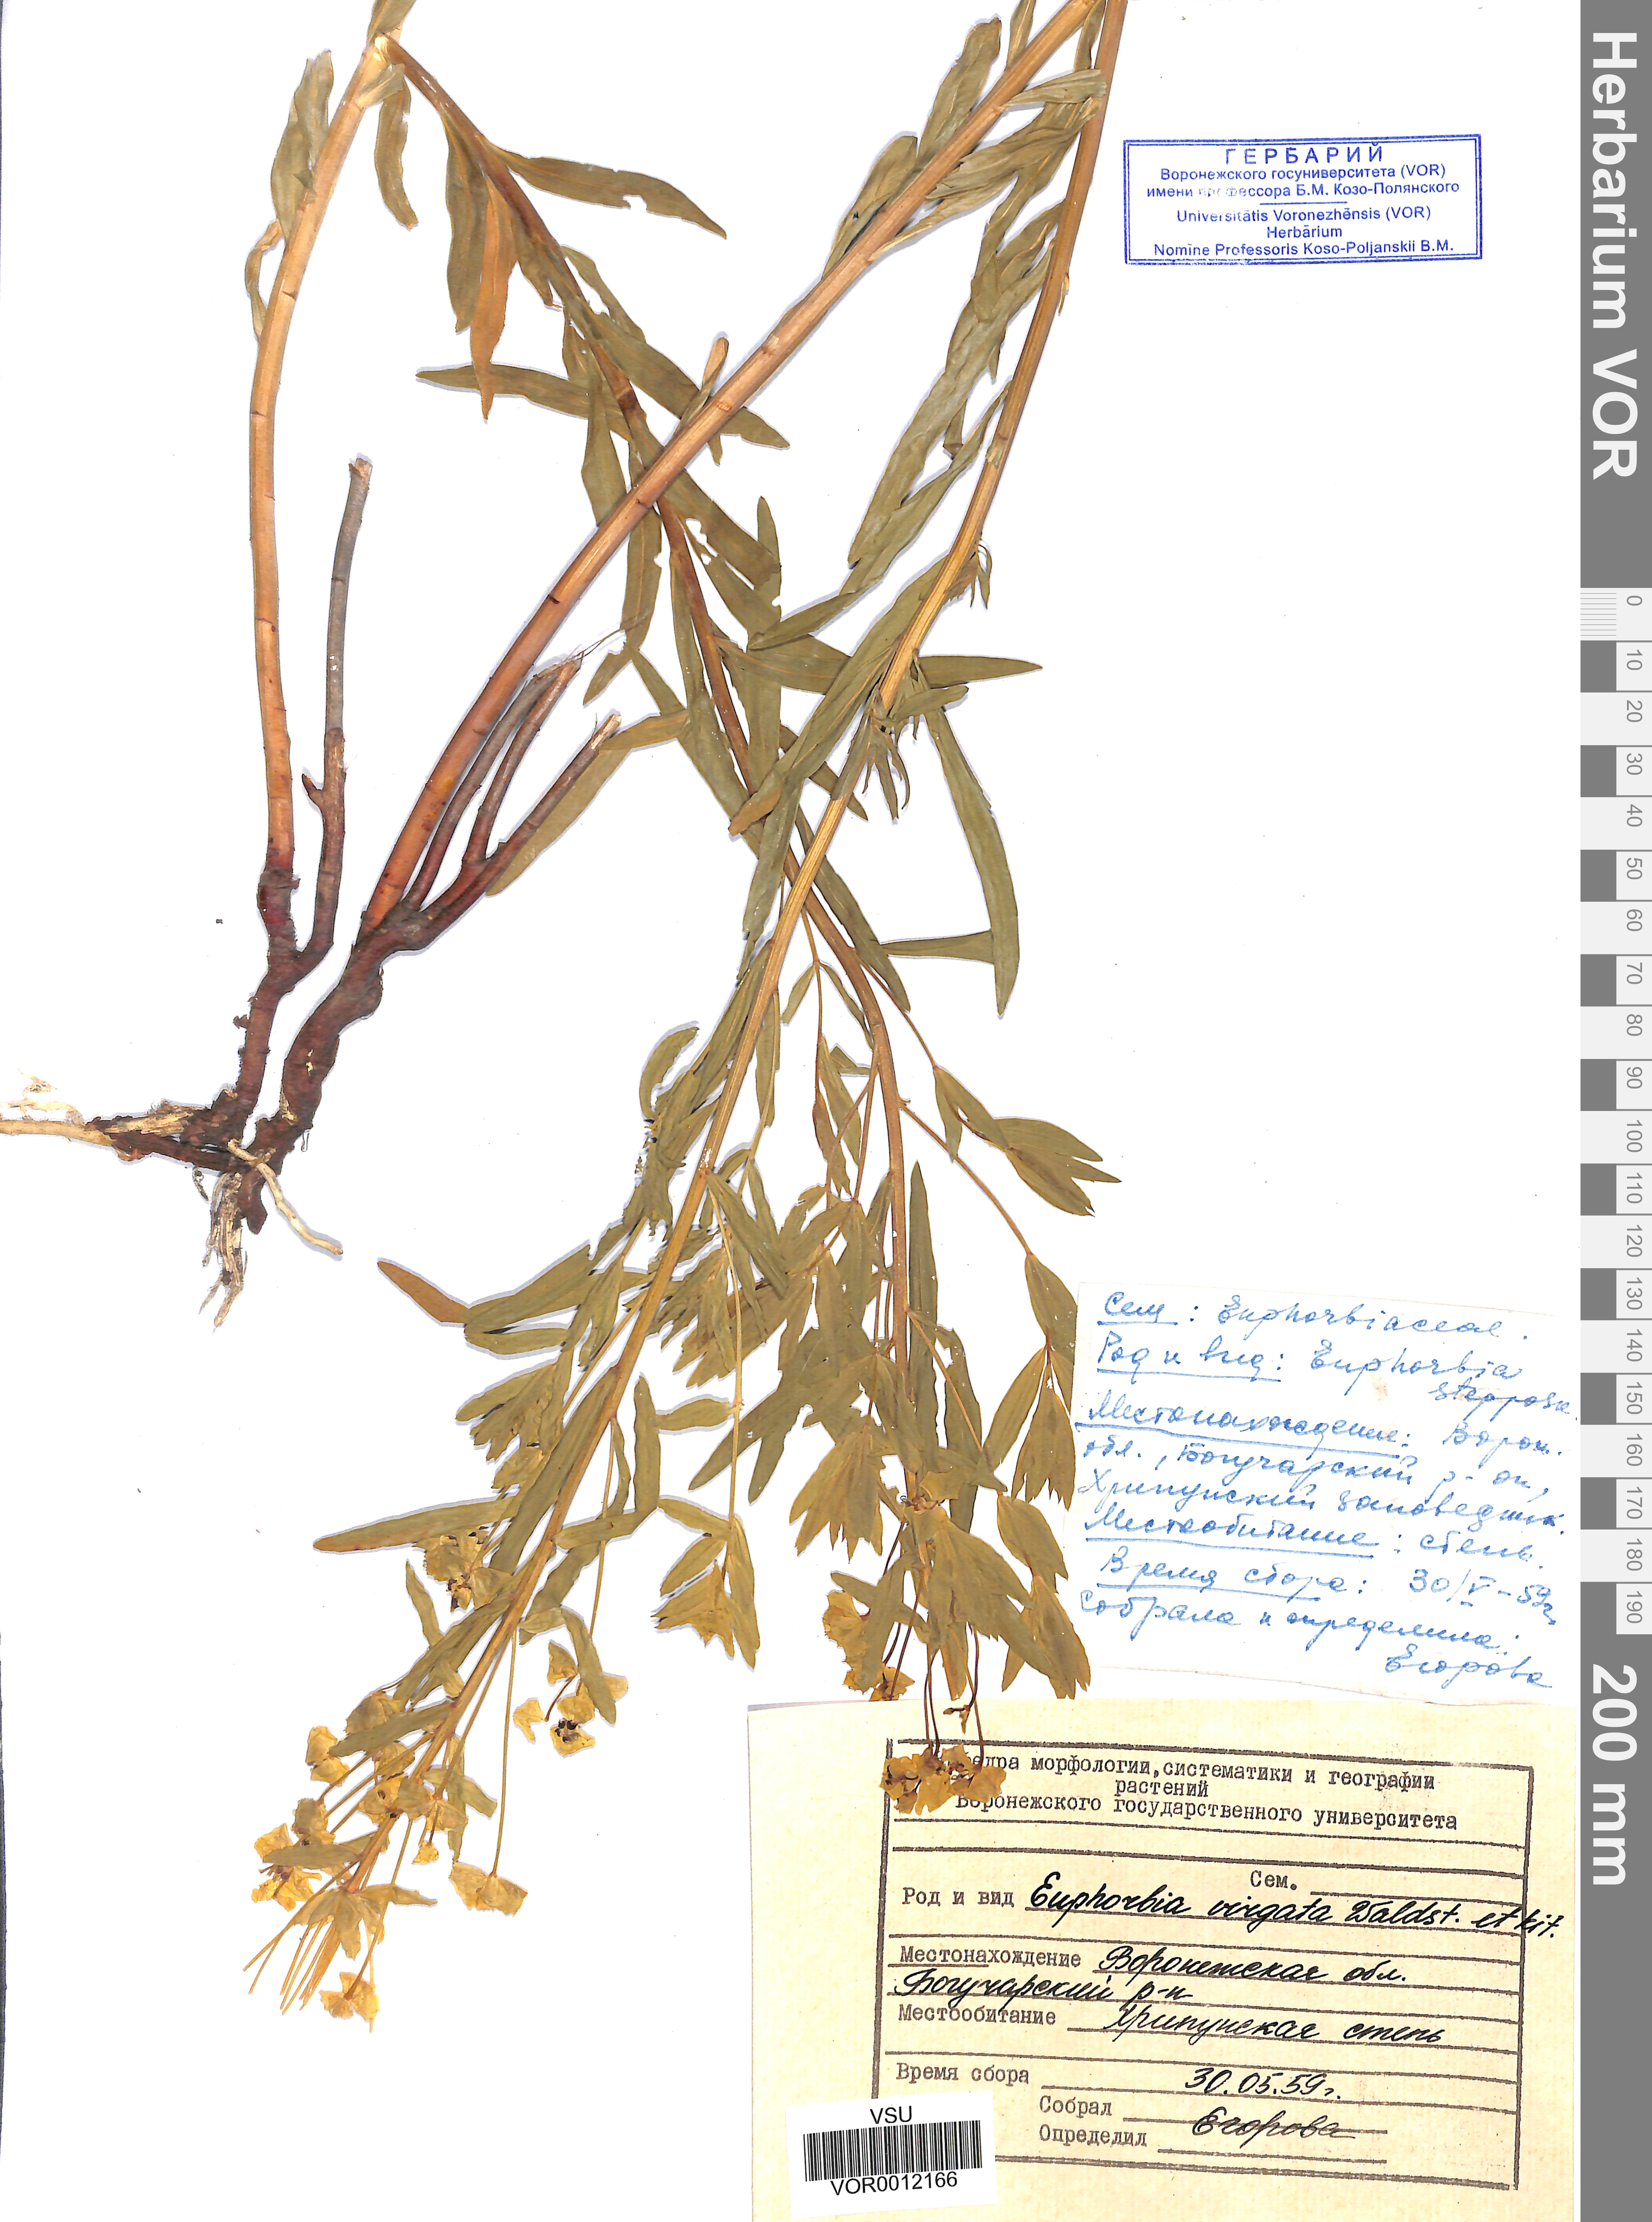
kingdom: Plantae
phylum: Tracheophyta
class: Magnoliopsida
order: Malpighiales
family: Euphorbiaceae
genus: Euphorbia
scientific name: Euphorbia virgata
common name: Leafy spurge
